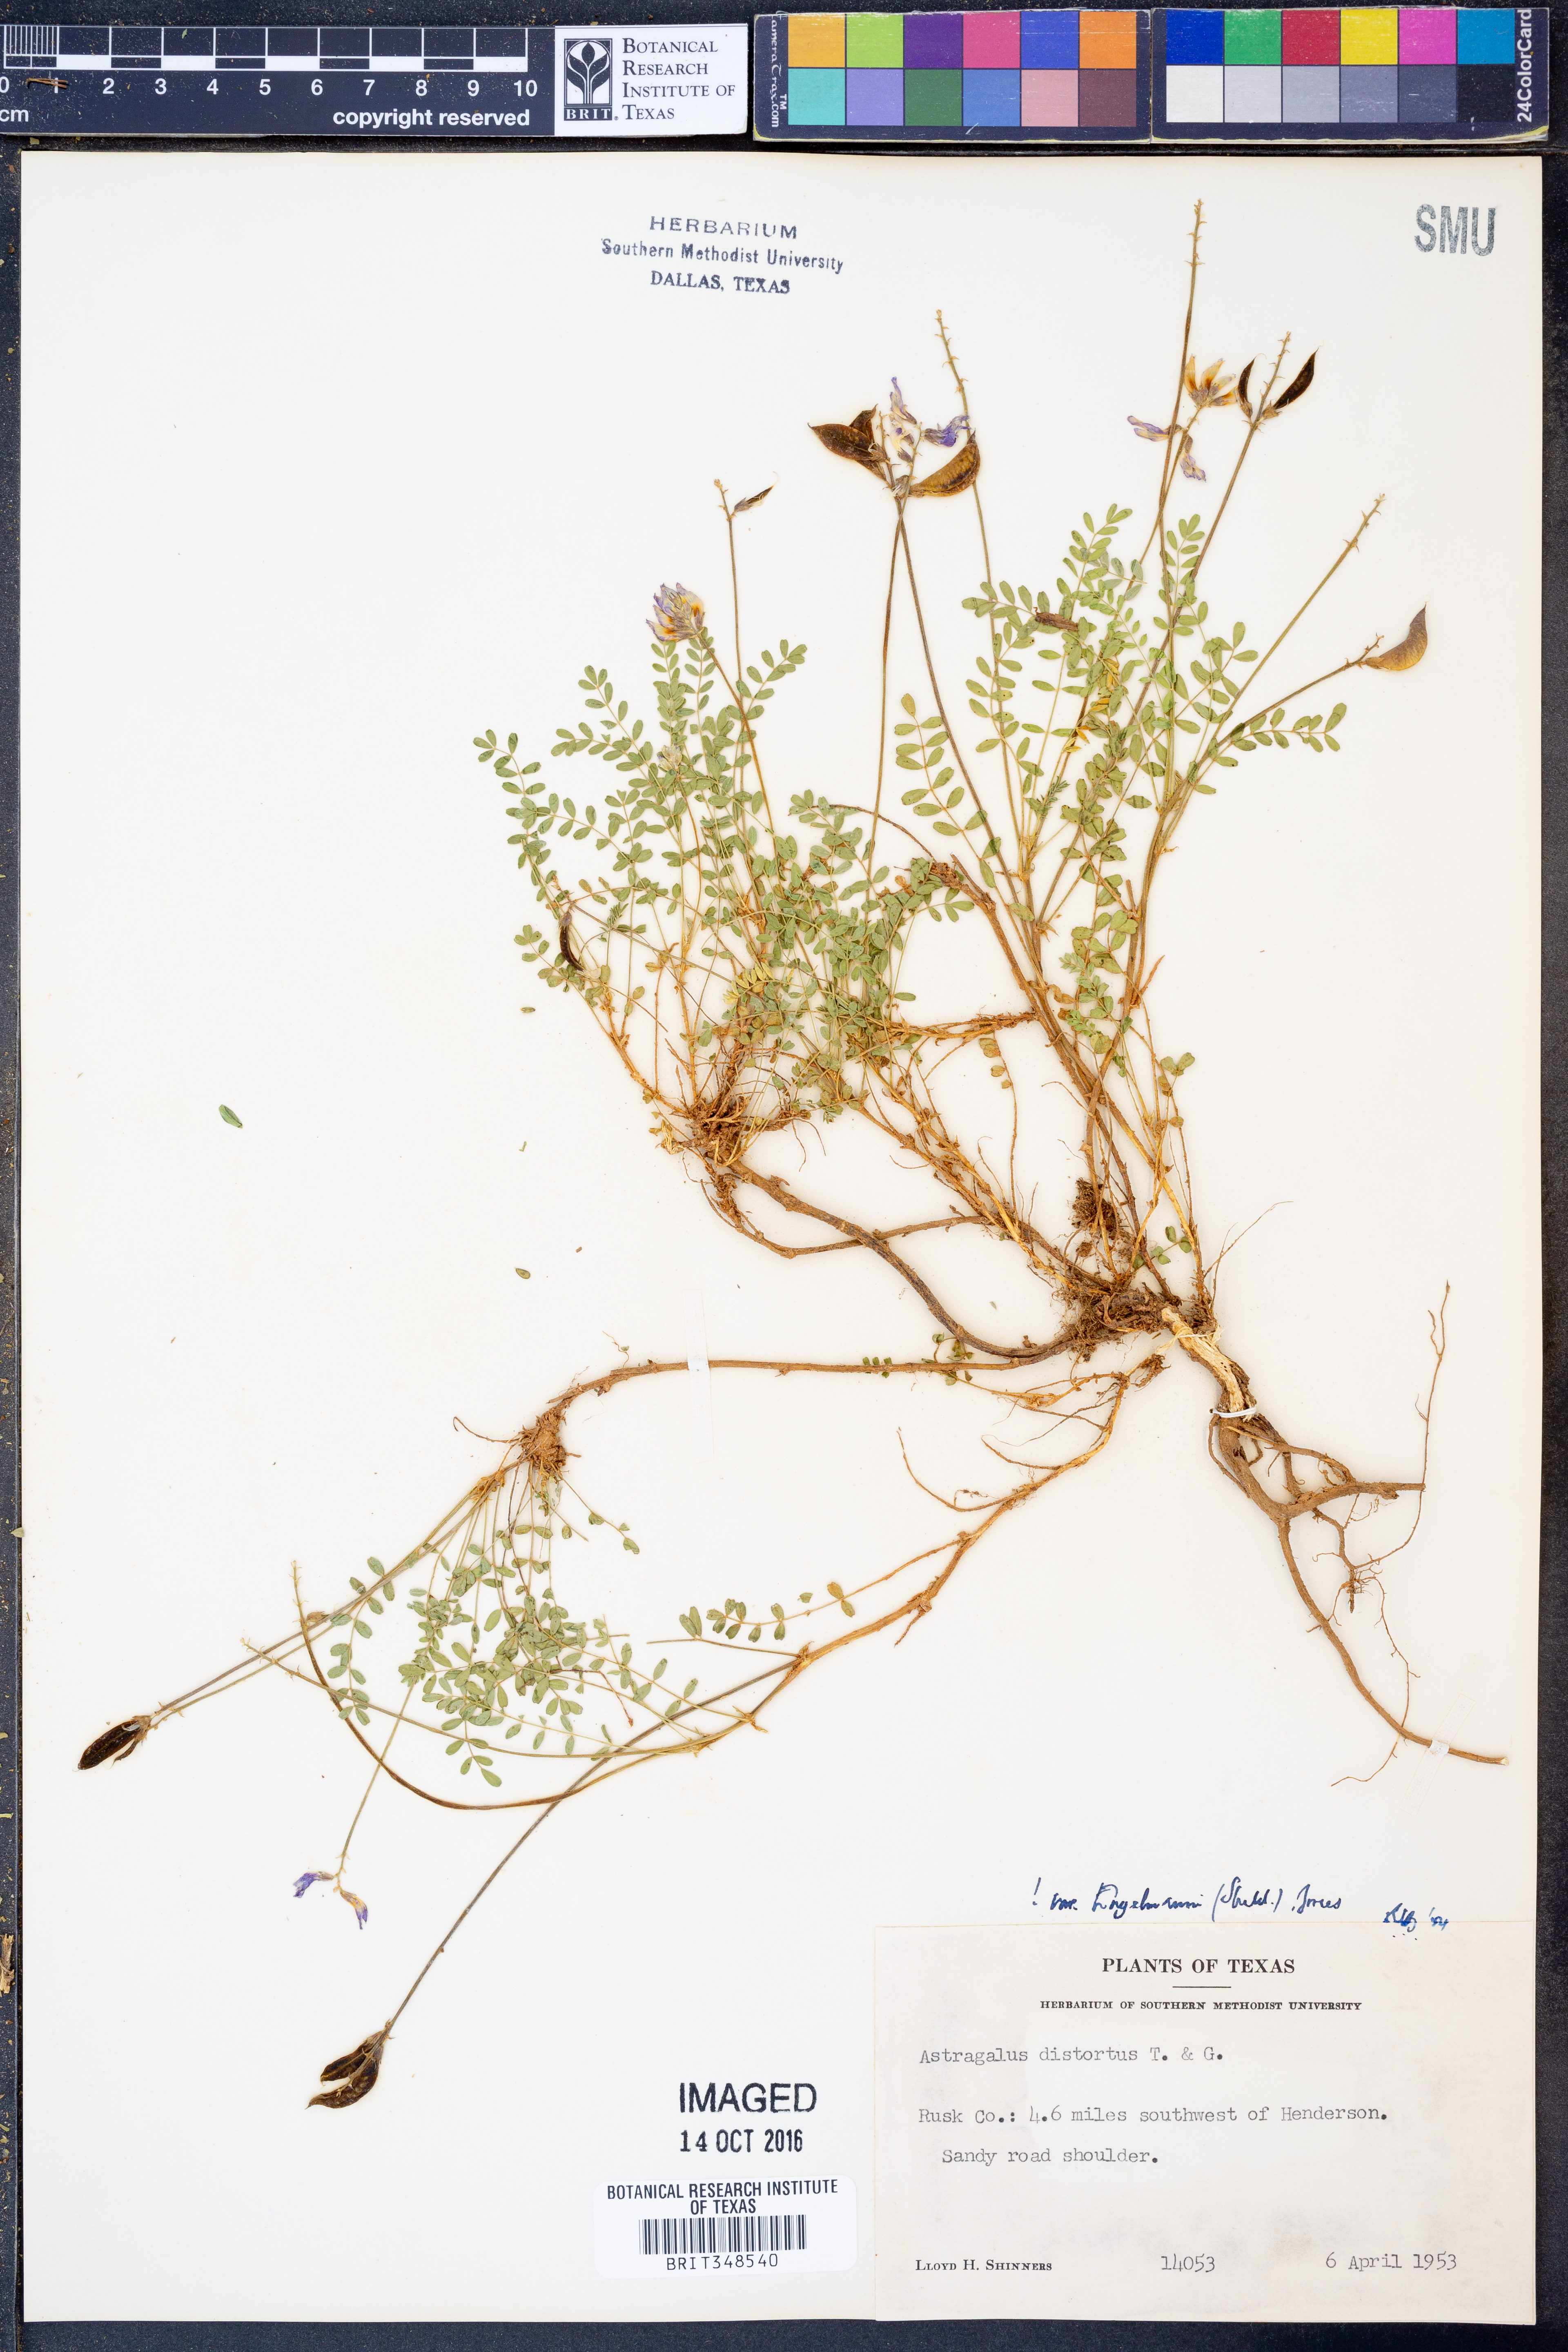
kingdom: Plantae
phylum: Tracheophyta
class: Magnoliopsida
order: Fabales
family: Fabaceae
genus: Astragalus
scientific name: Astragalus distortus
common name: Ozark milk-vetch
